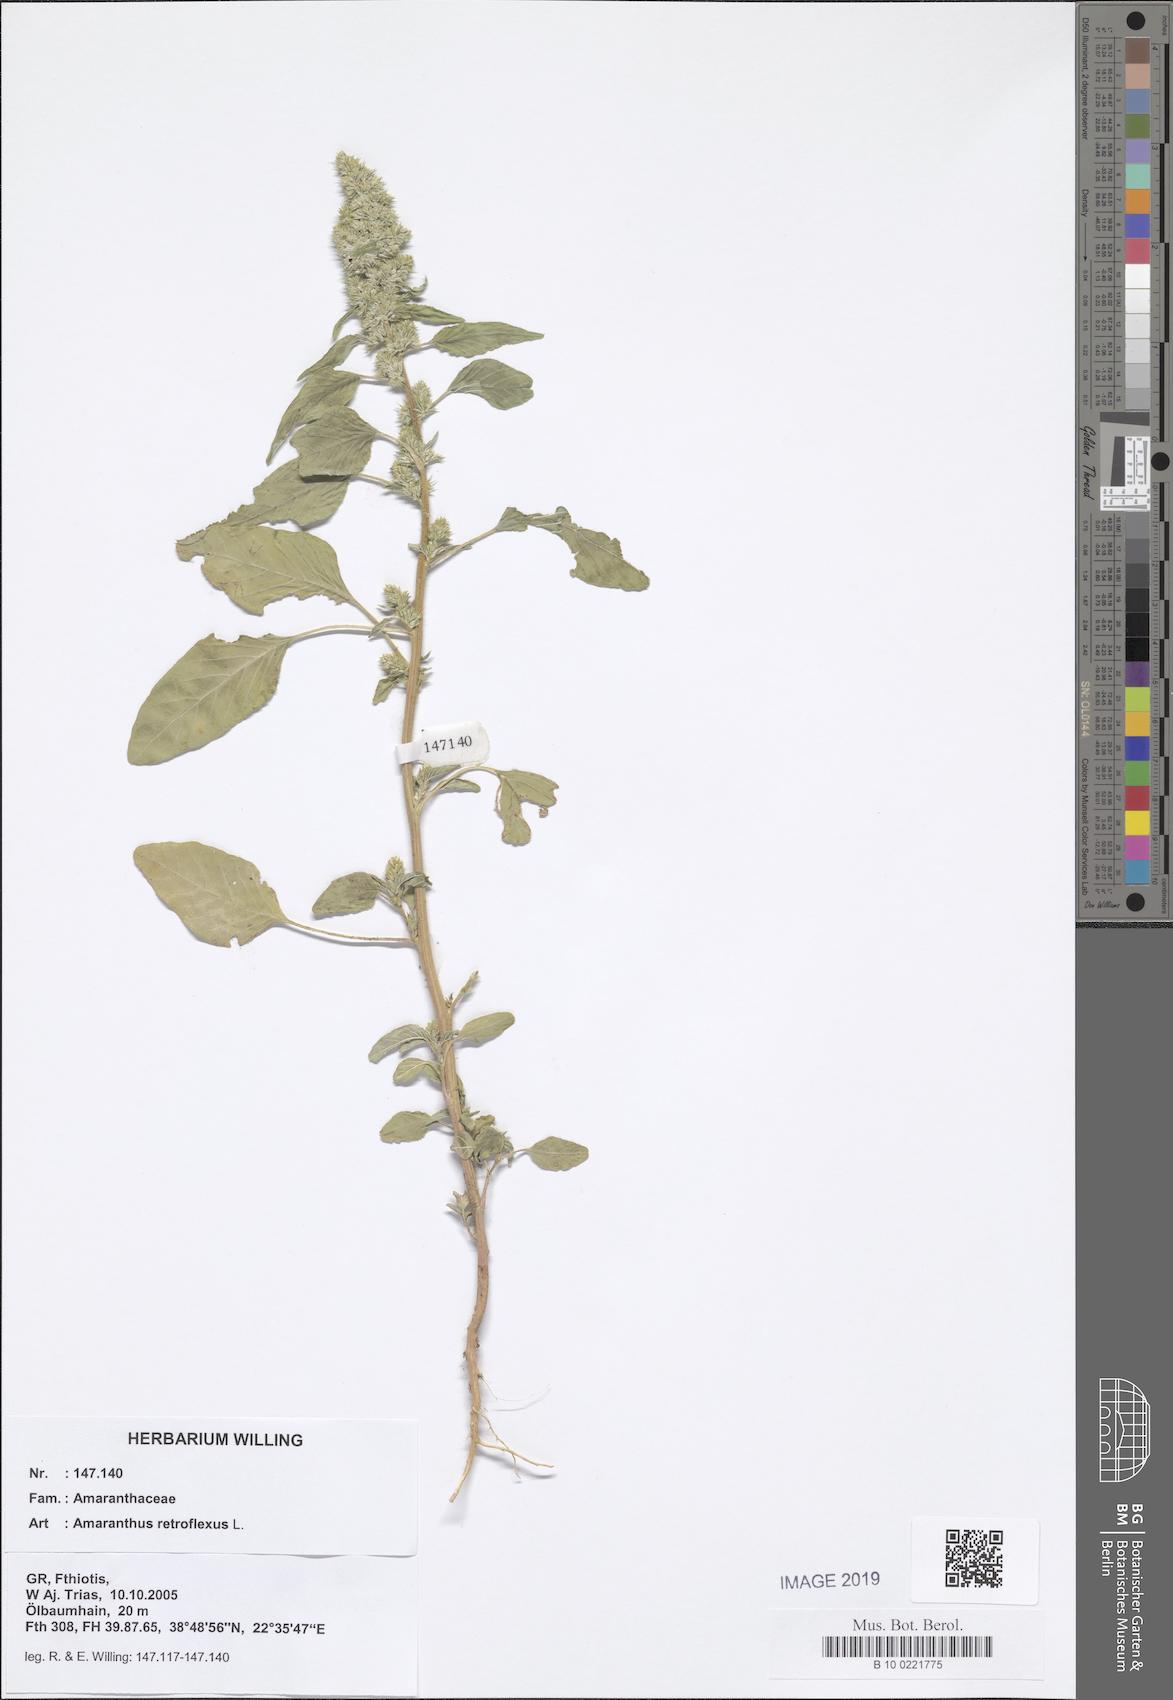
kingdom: Plantae
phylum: Tracheophyta
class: Magnoliopsida
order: Caryophyllales
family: Amaranthaceae
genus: Amaranthus
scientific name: Amaranthus retroflexus
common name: Redroot amaranth
